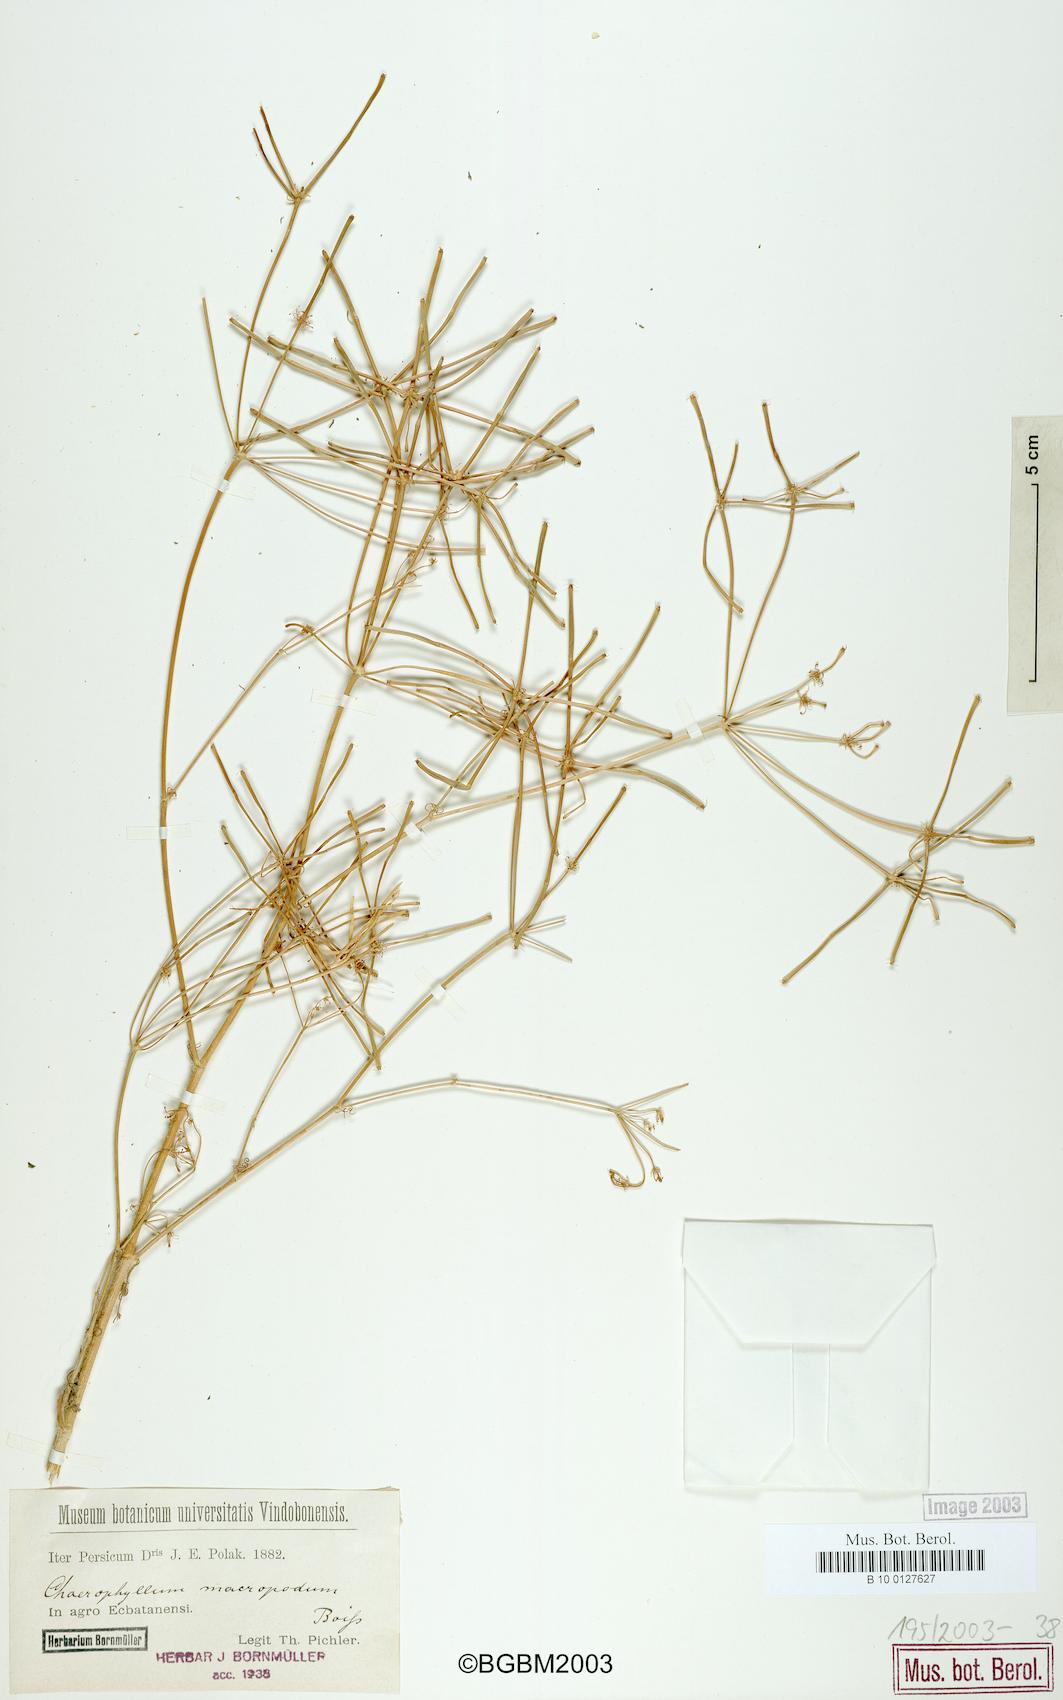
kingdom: Plantae
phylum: Tracheophyta
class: Magnoliopsida
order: Apiales
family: Apiaceae
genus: Chaerophyllum
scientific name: Chaerophyllum macropodum
